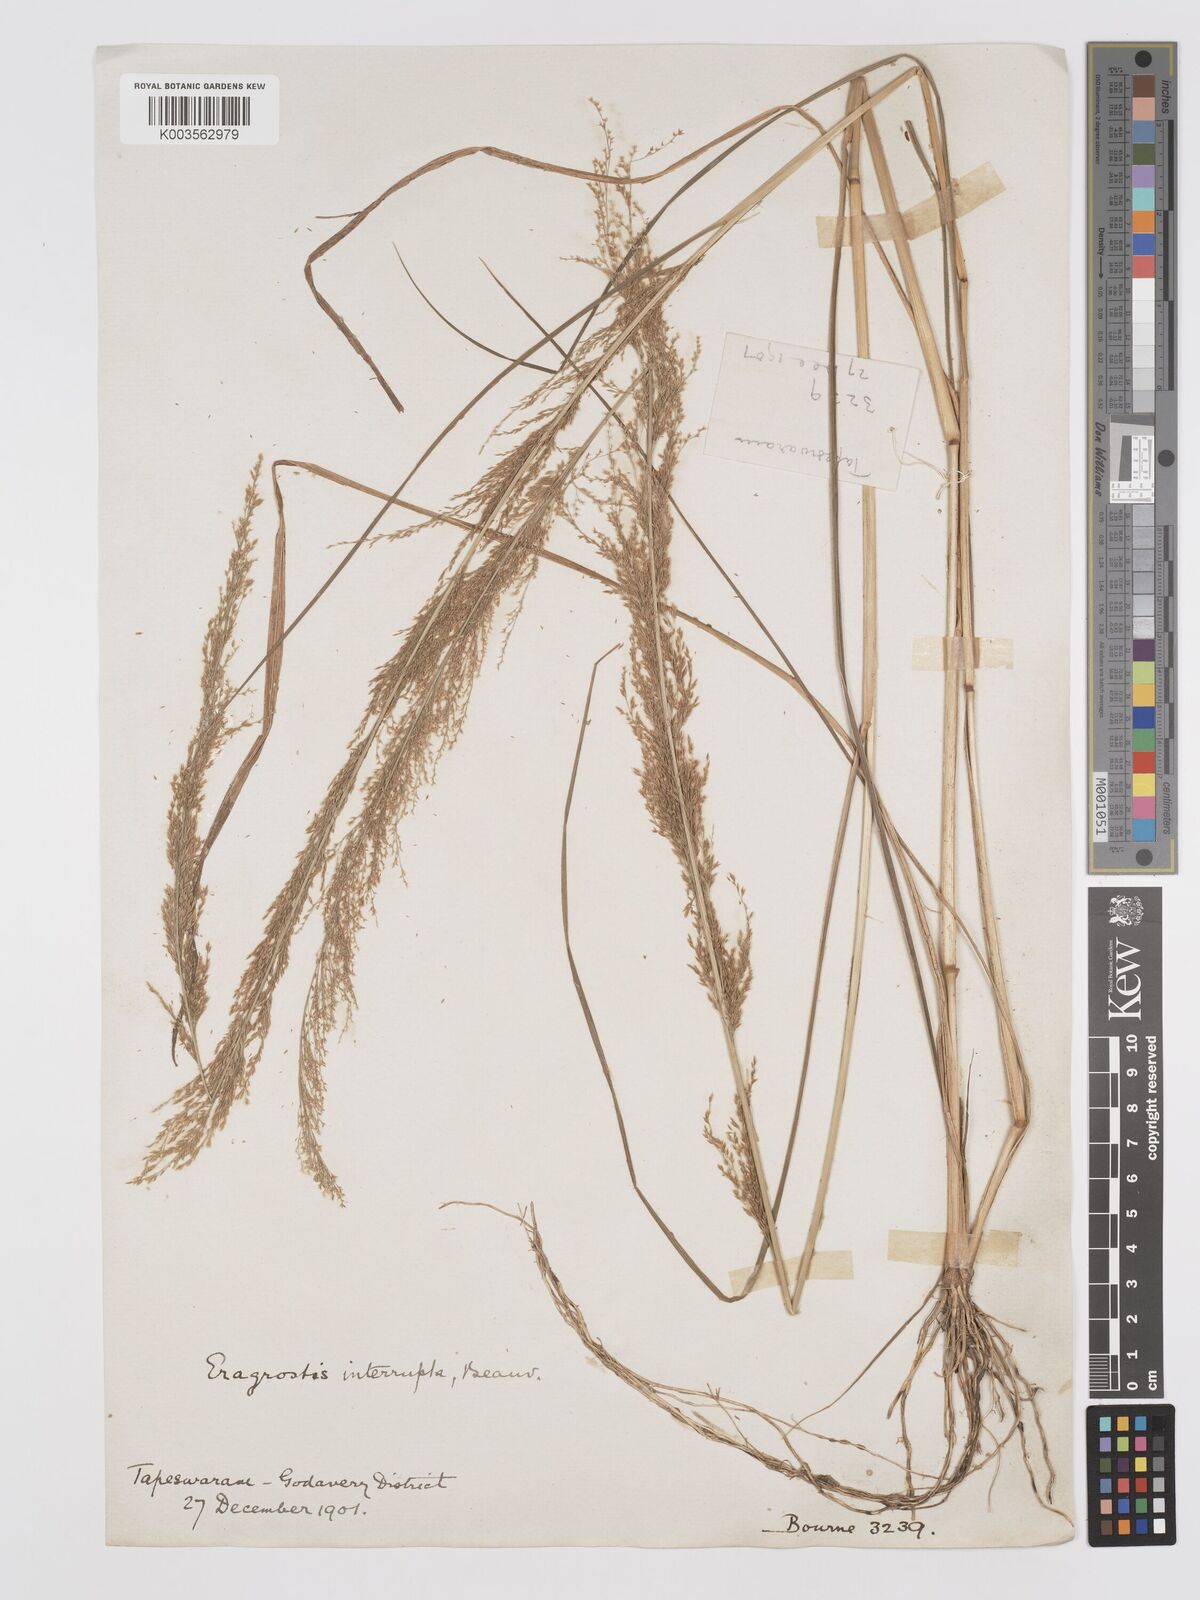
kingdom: Plantae
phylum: Tracheophyta
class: Liliopsida
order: Poales
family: Poaceae
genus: Eragrostis
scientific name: Eragrostis japonica
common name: Pond lovegrass
